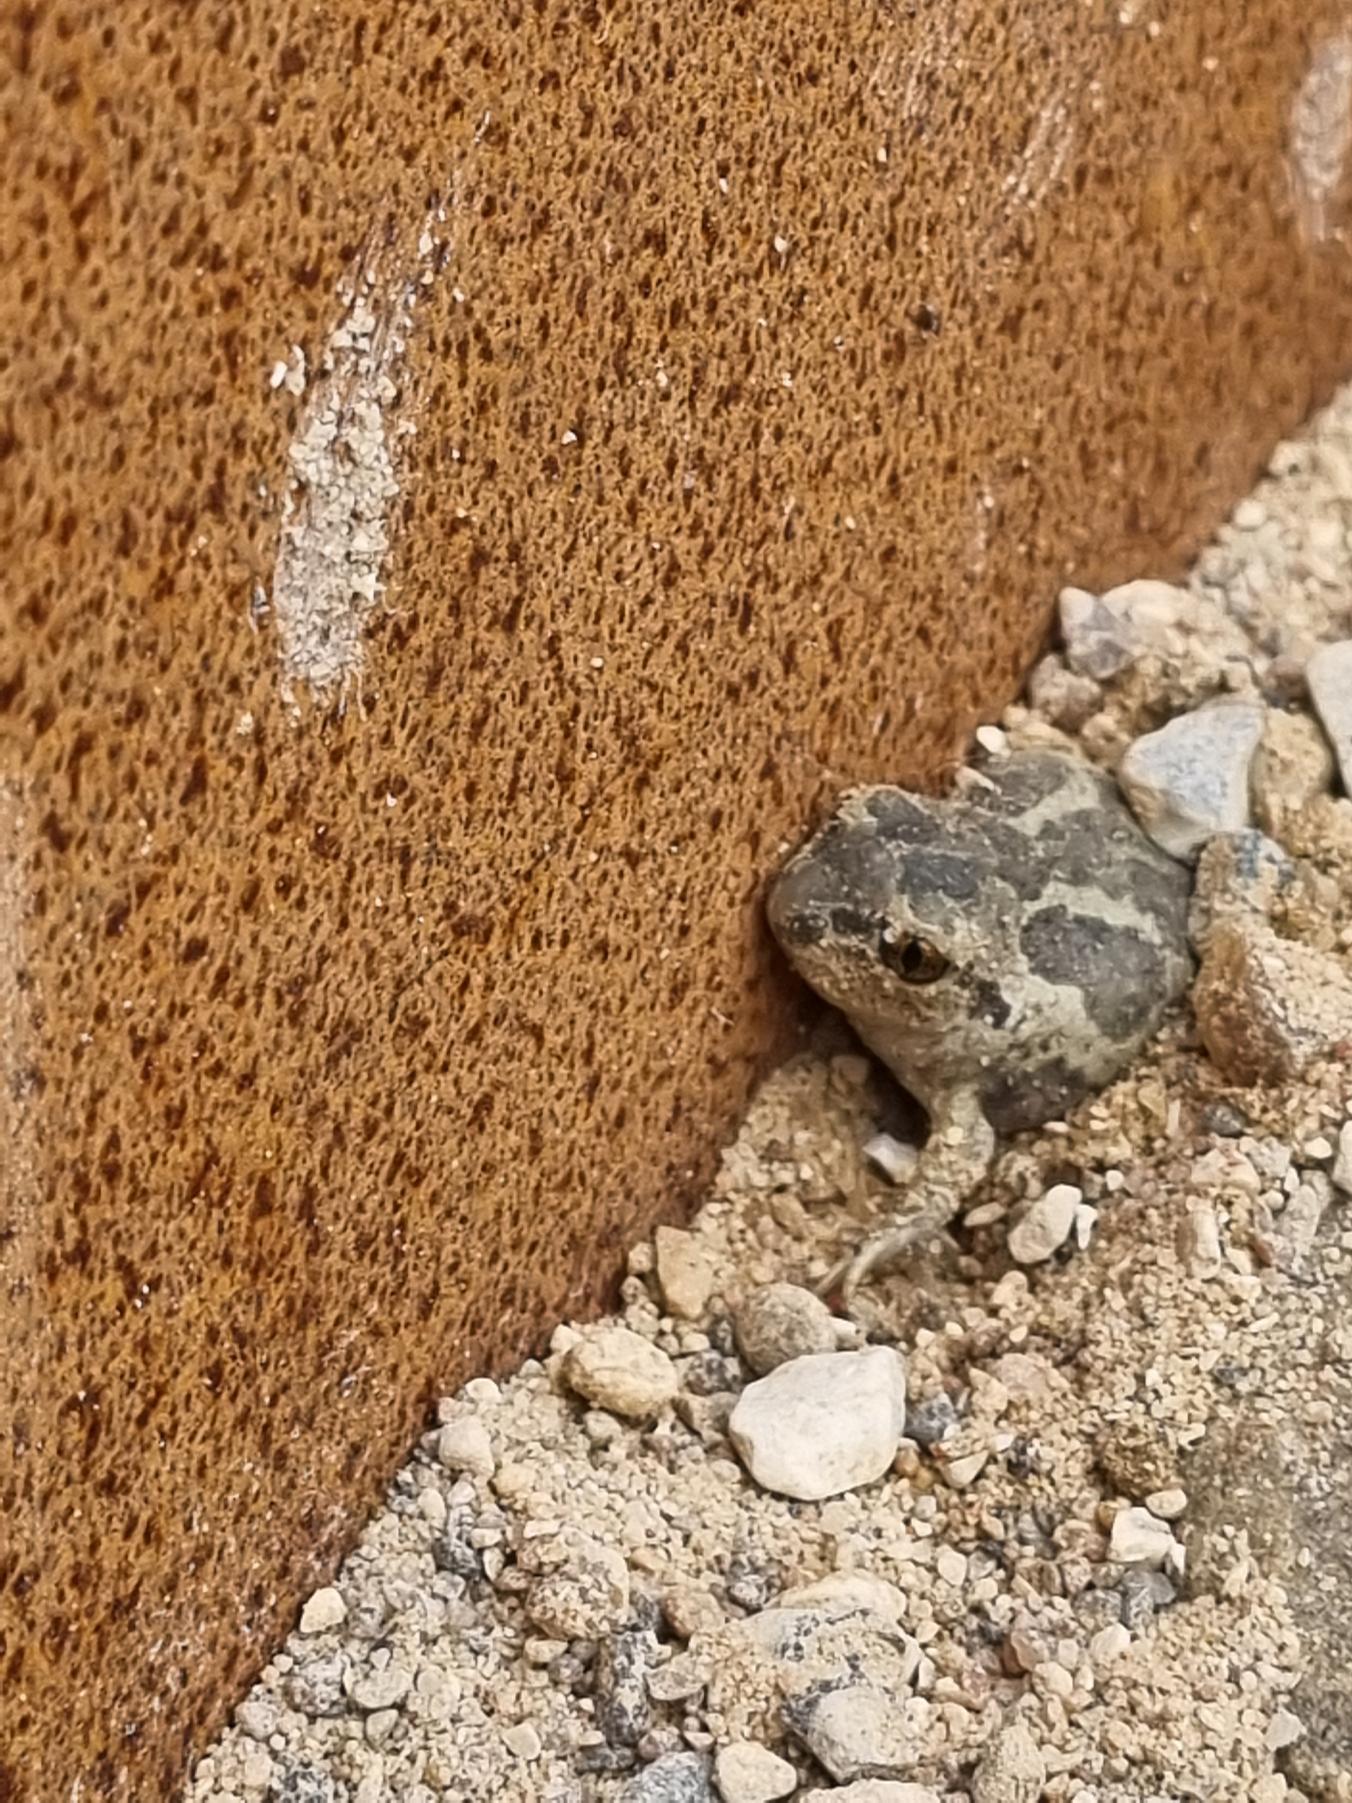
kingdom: Animalia
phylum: Chordata
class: Amphibia
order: Anura
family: Pelobatidae
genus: Pelobates
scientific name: Pelobates fuscus
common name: Løgfrø
